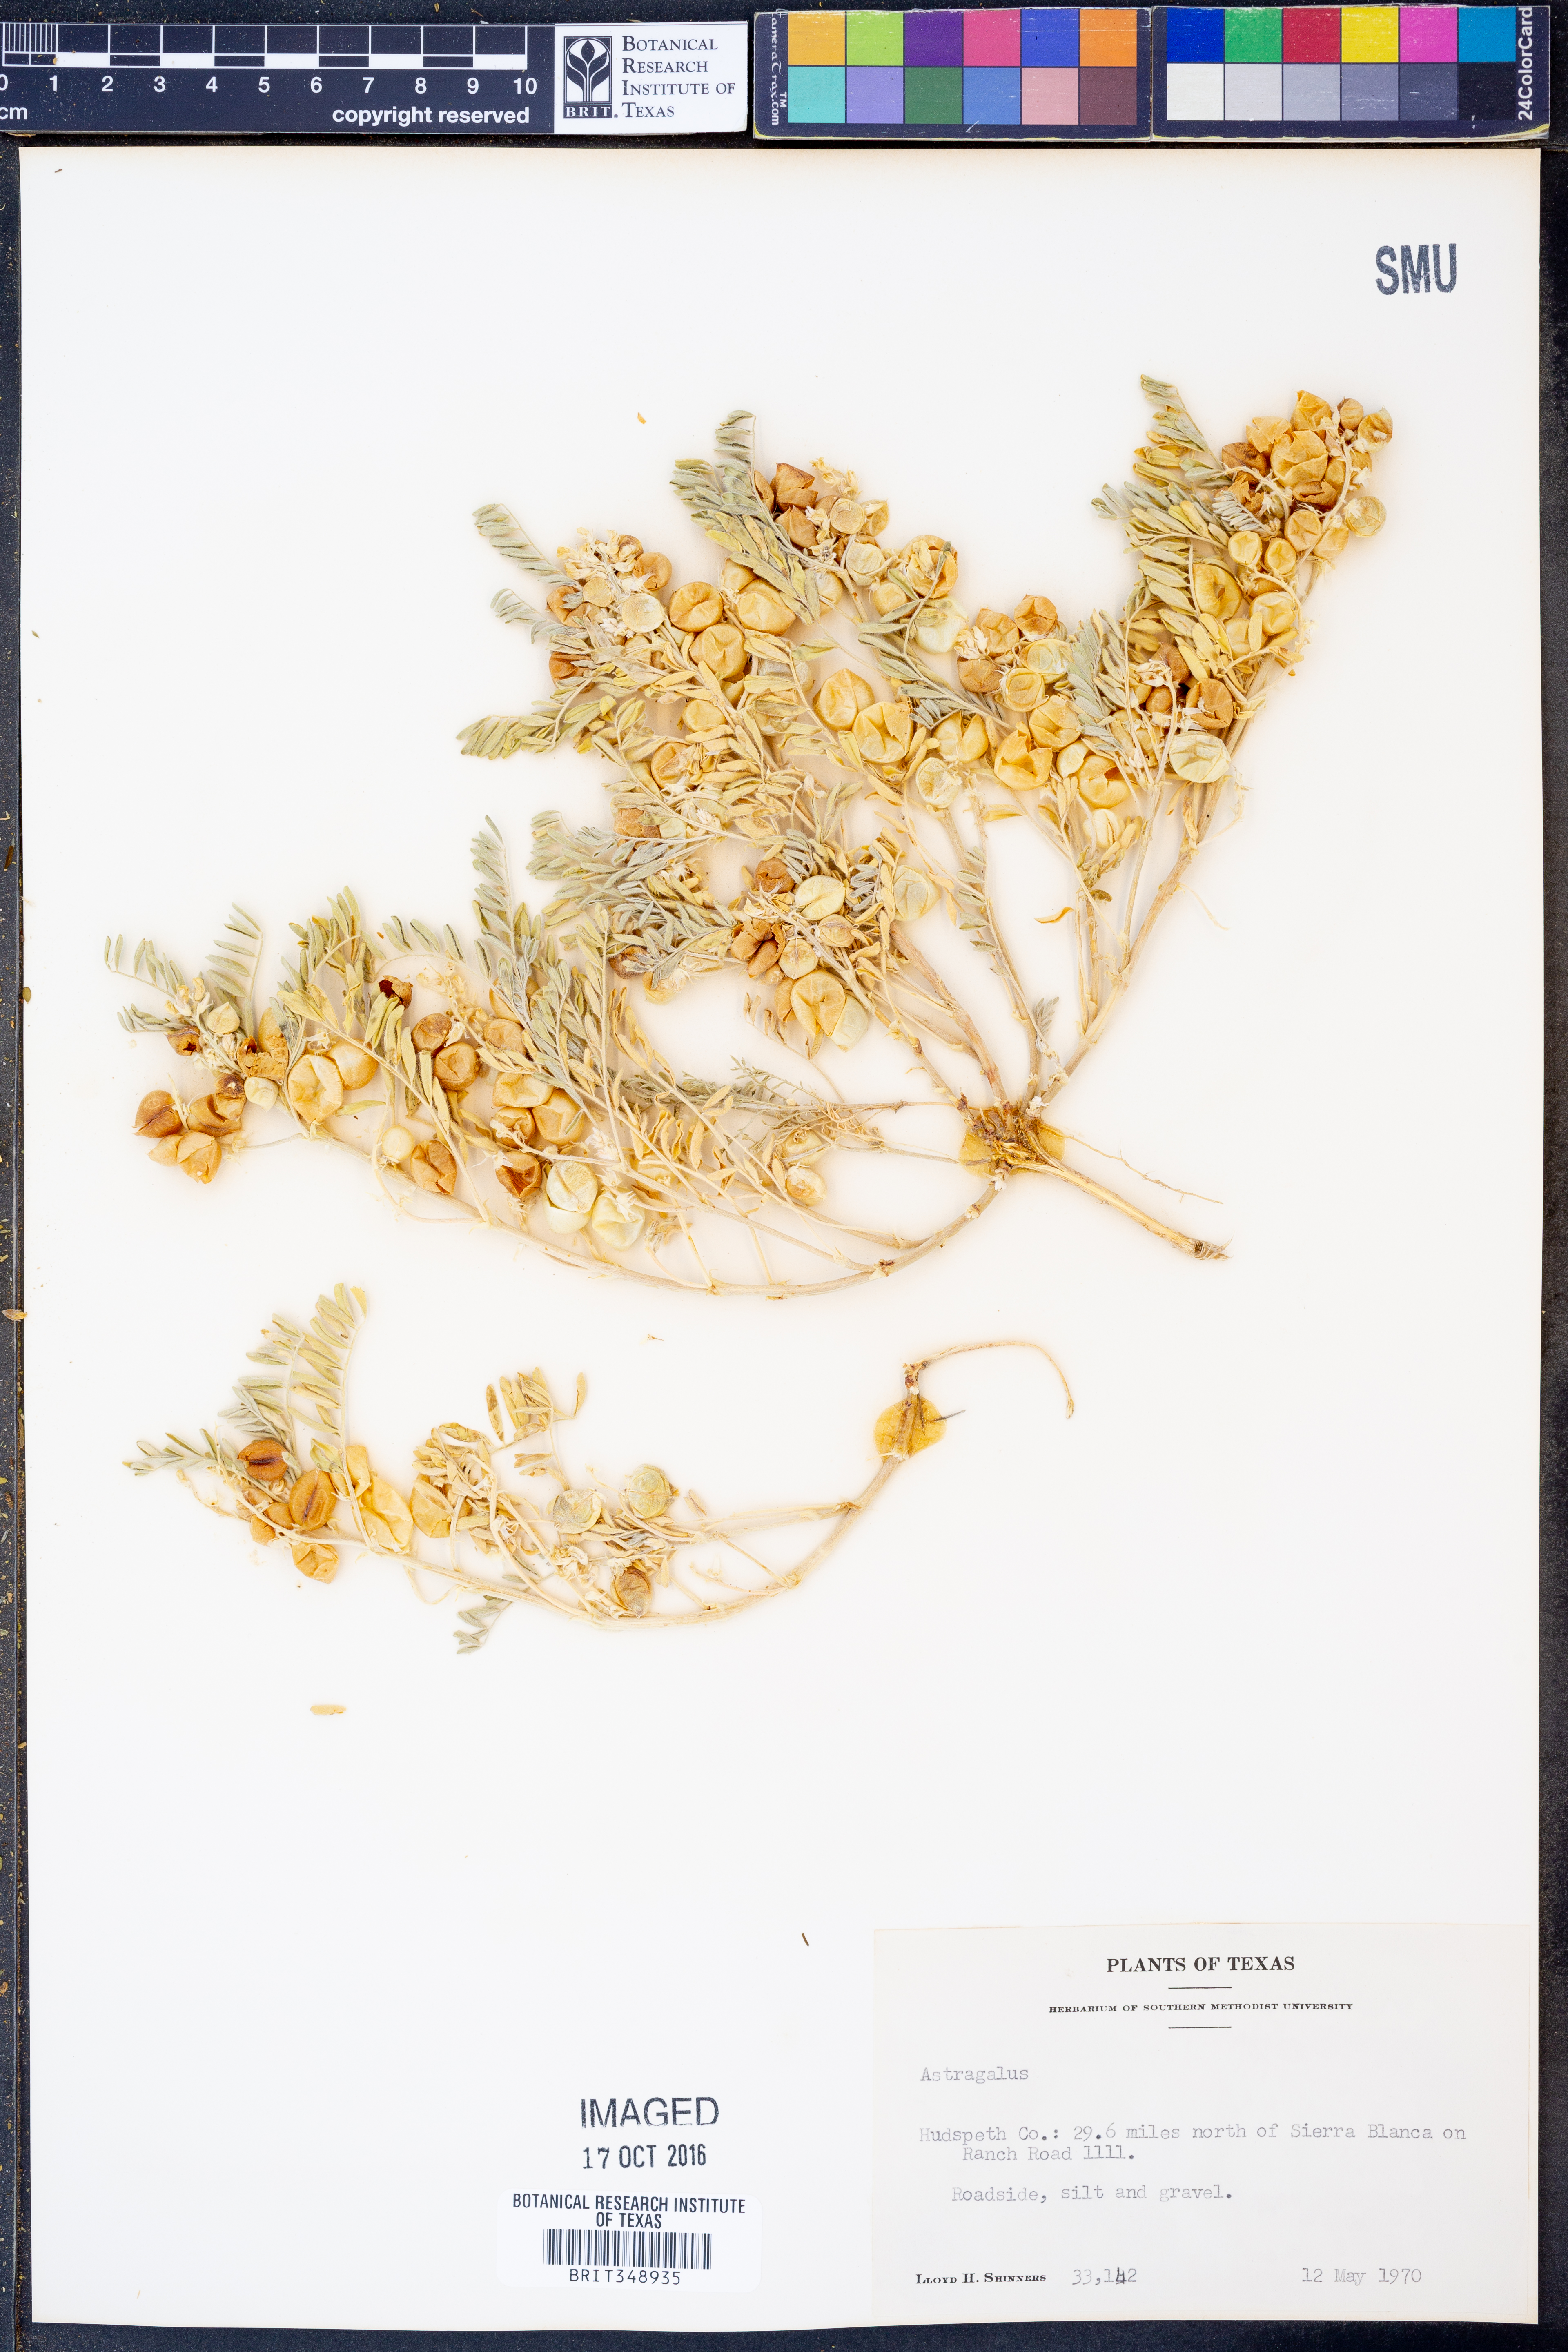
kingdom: Plantae
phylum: Tracheophyta
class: Magnoliopsida
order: Fabales
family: Fabaceae
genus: Astragalus
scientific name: Astragalus
